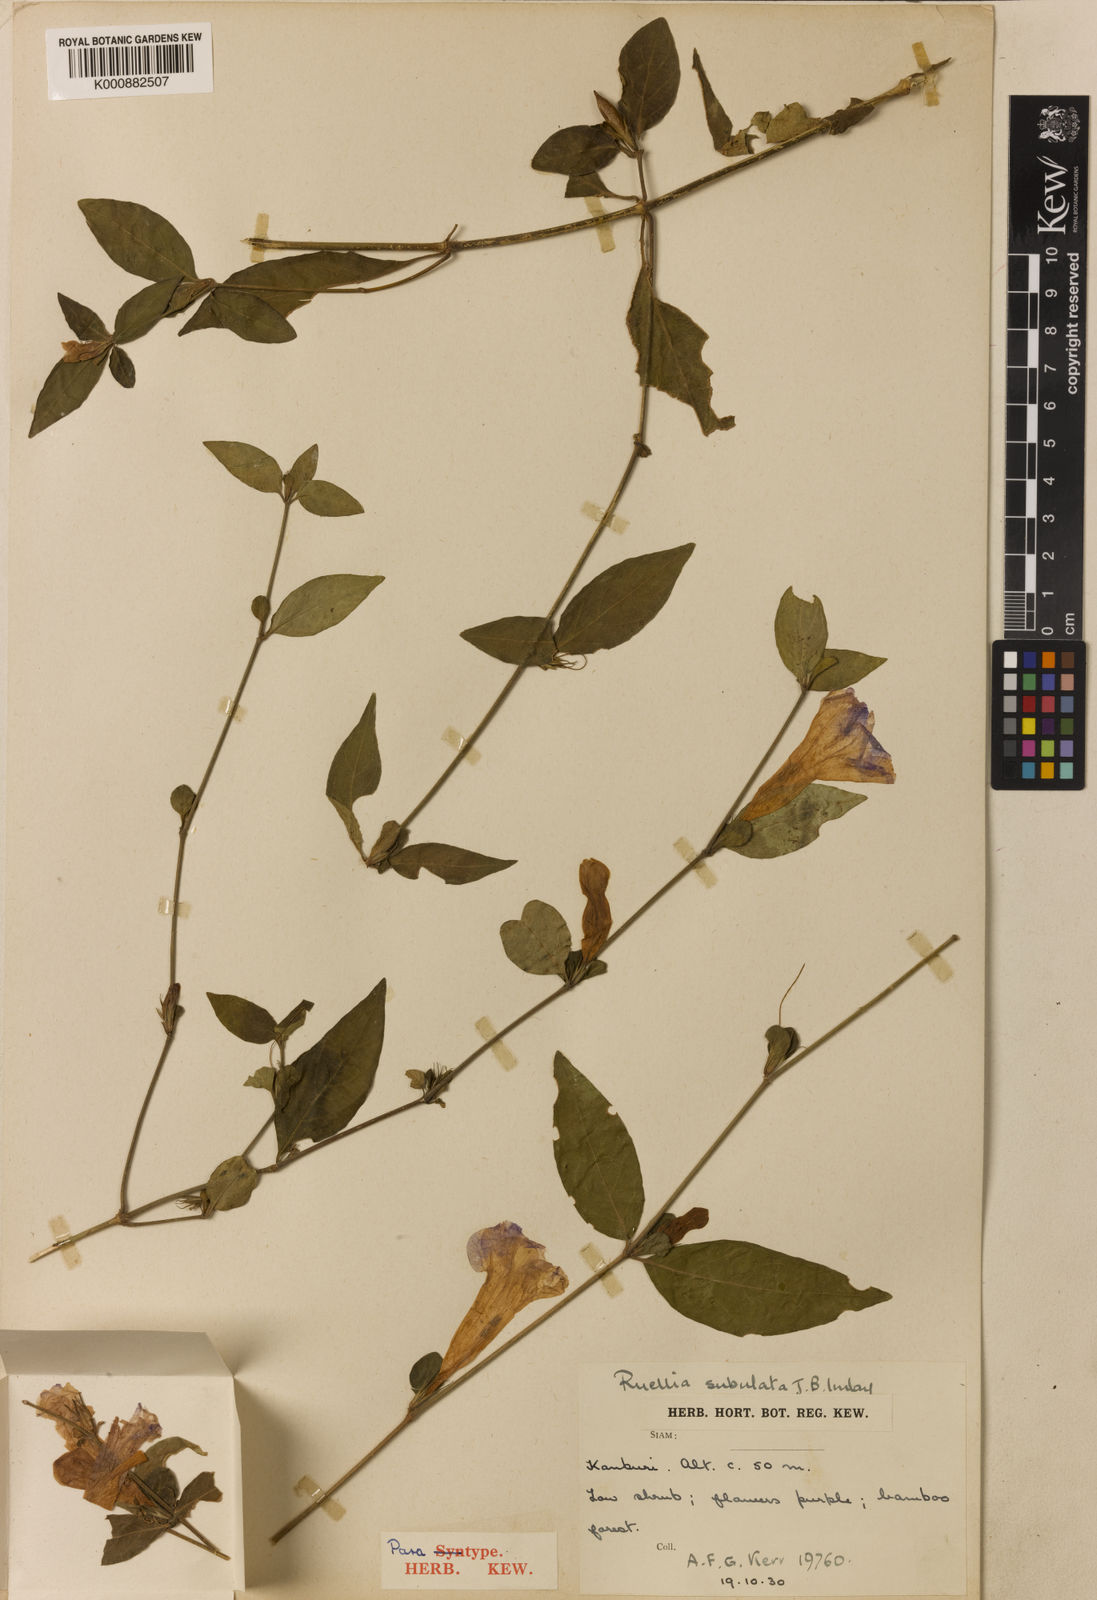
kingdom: Plantae
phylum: Tracheophyta
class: Magnoliopsida
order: Lamiales
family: Acanthaceae
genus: Ruellia
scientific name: Ruellia kerrii
